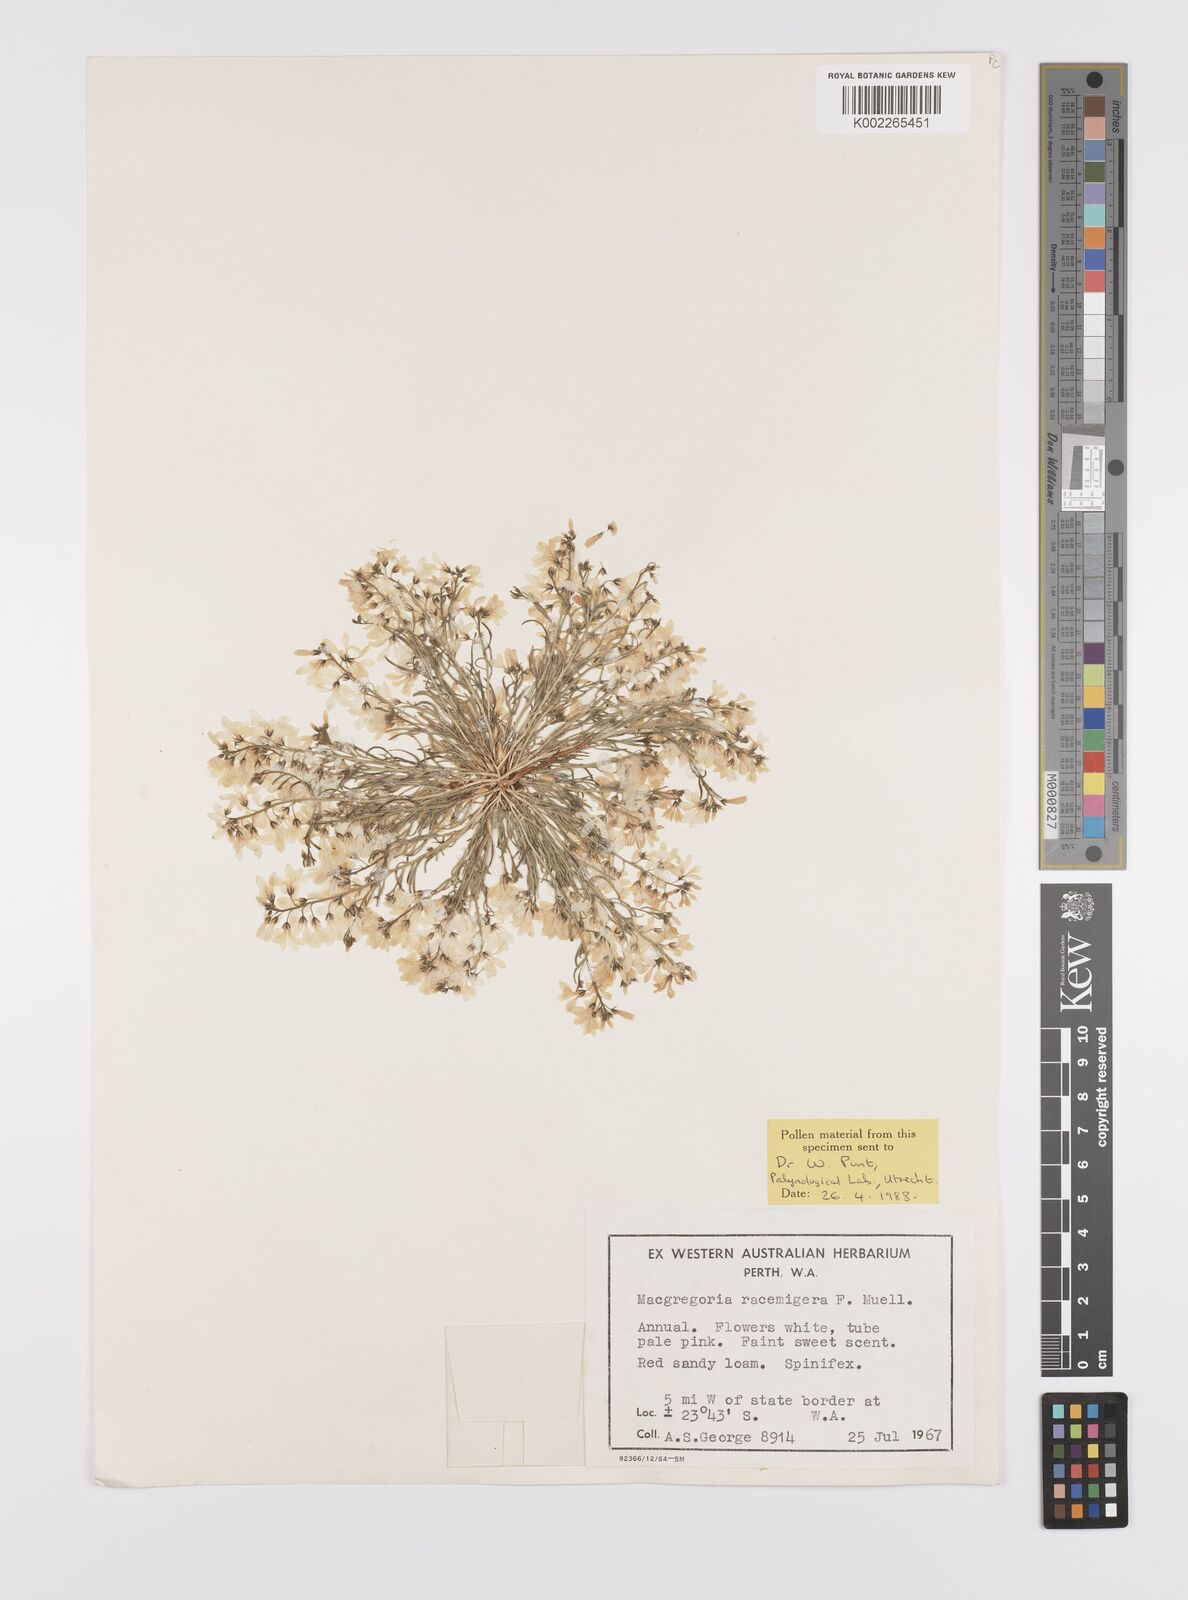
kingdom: Plantae
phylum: Tracheophyta
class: Magnoliopsida
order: Celastrales
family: Celastraceae
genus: Macgregoria
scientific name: Macgregoria racemigera
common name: Carpet-of-snow
